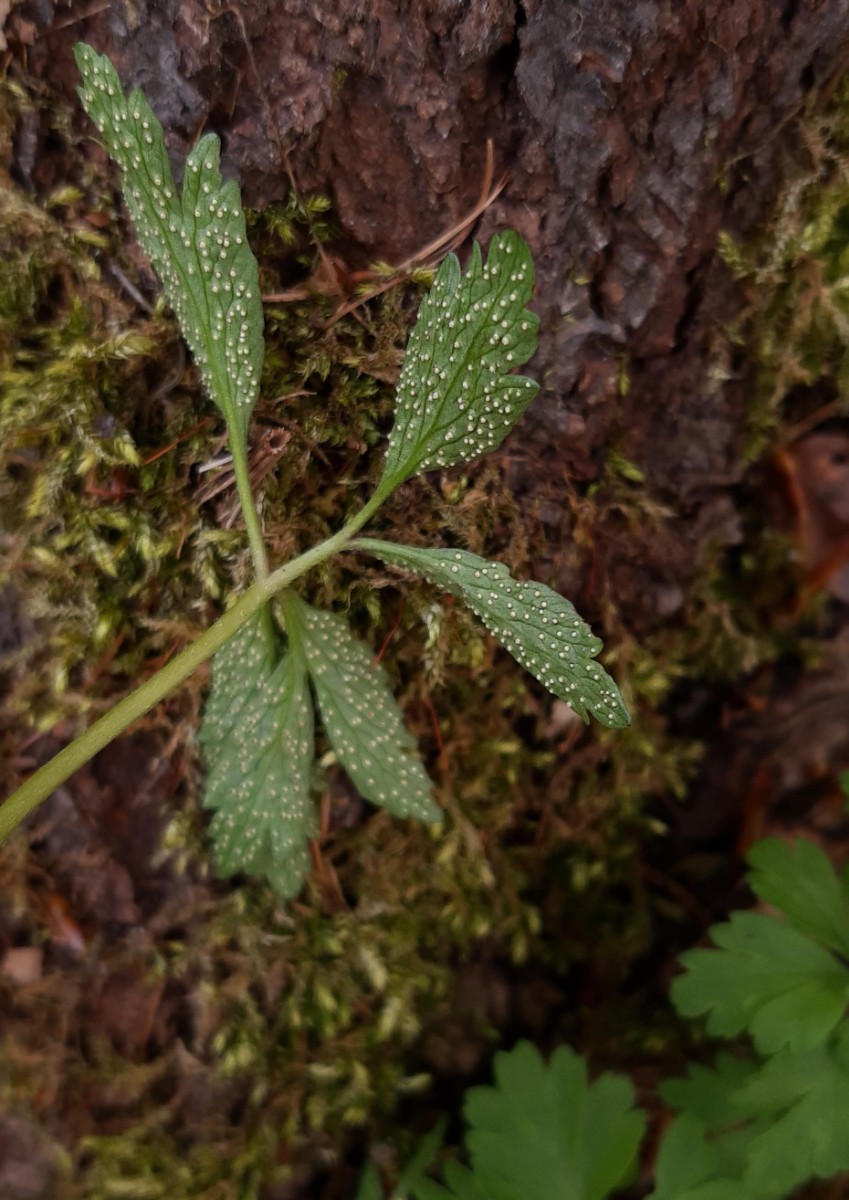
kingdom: Fungi
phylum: Basidiomycota
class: Pucciniomycetes
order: Pucciniales
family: Ochropsoraceae
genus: Ochropsora
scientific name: Ochropsora ariae
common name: anemone-okkerpletrust
